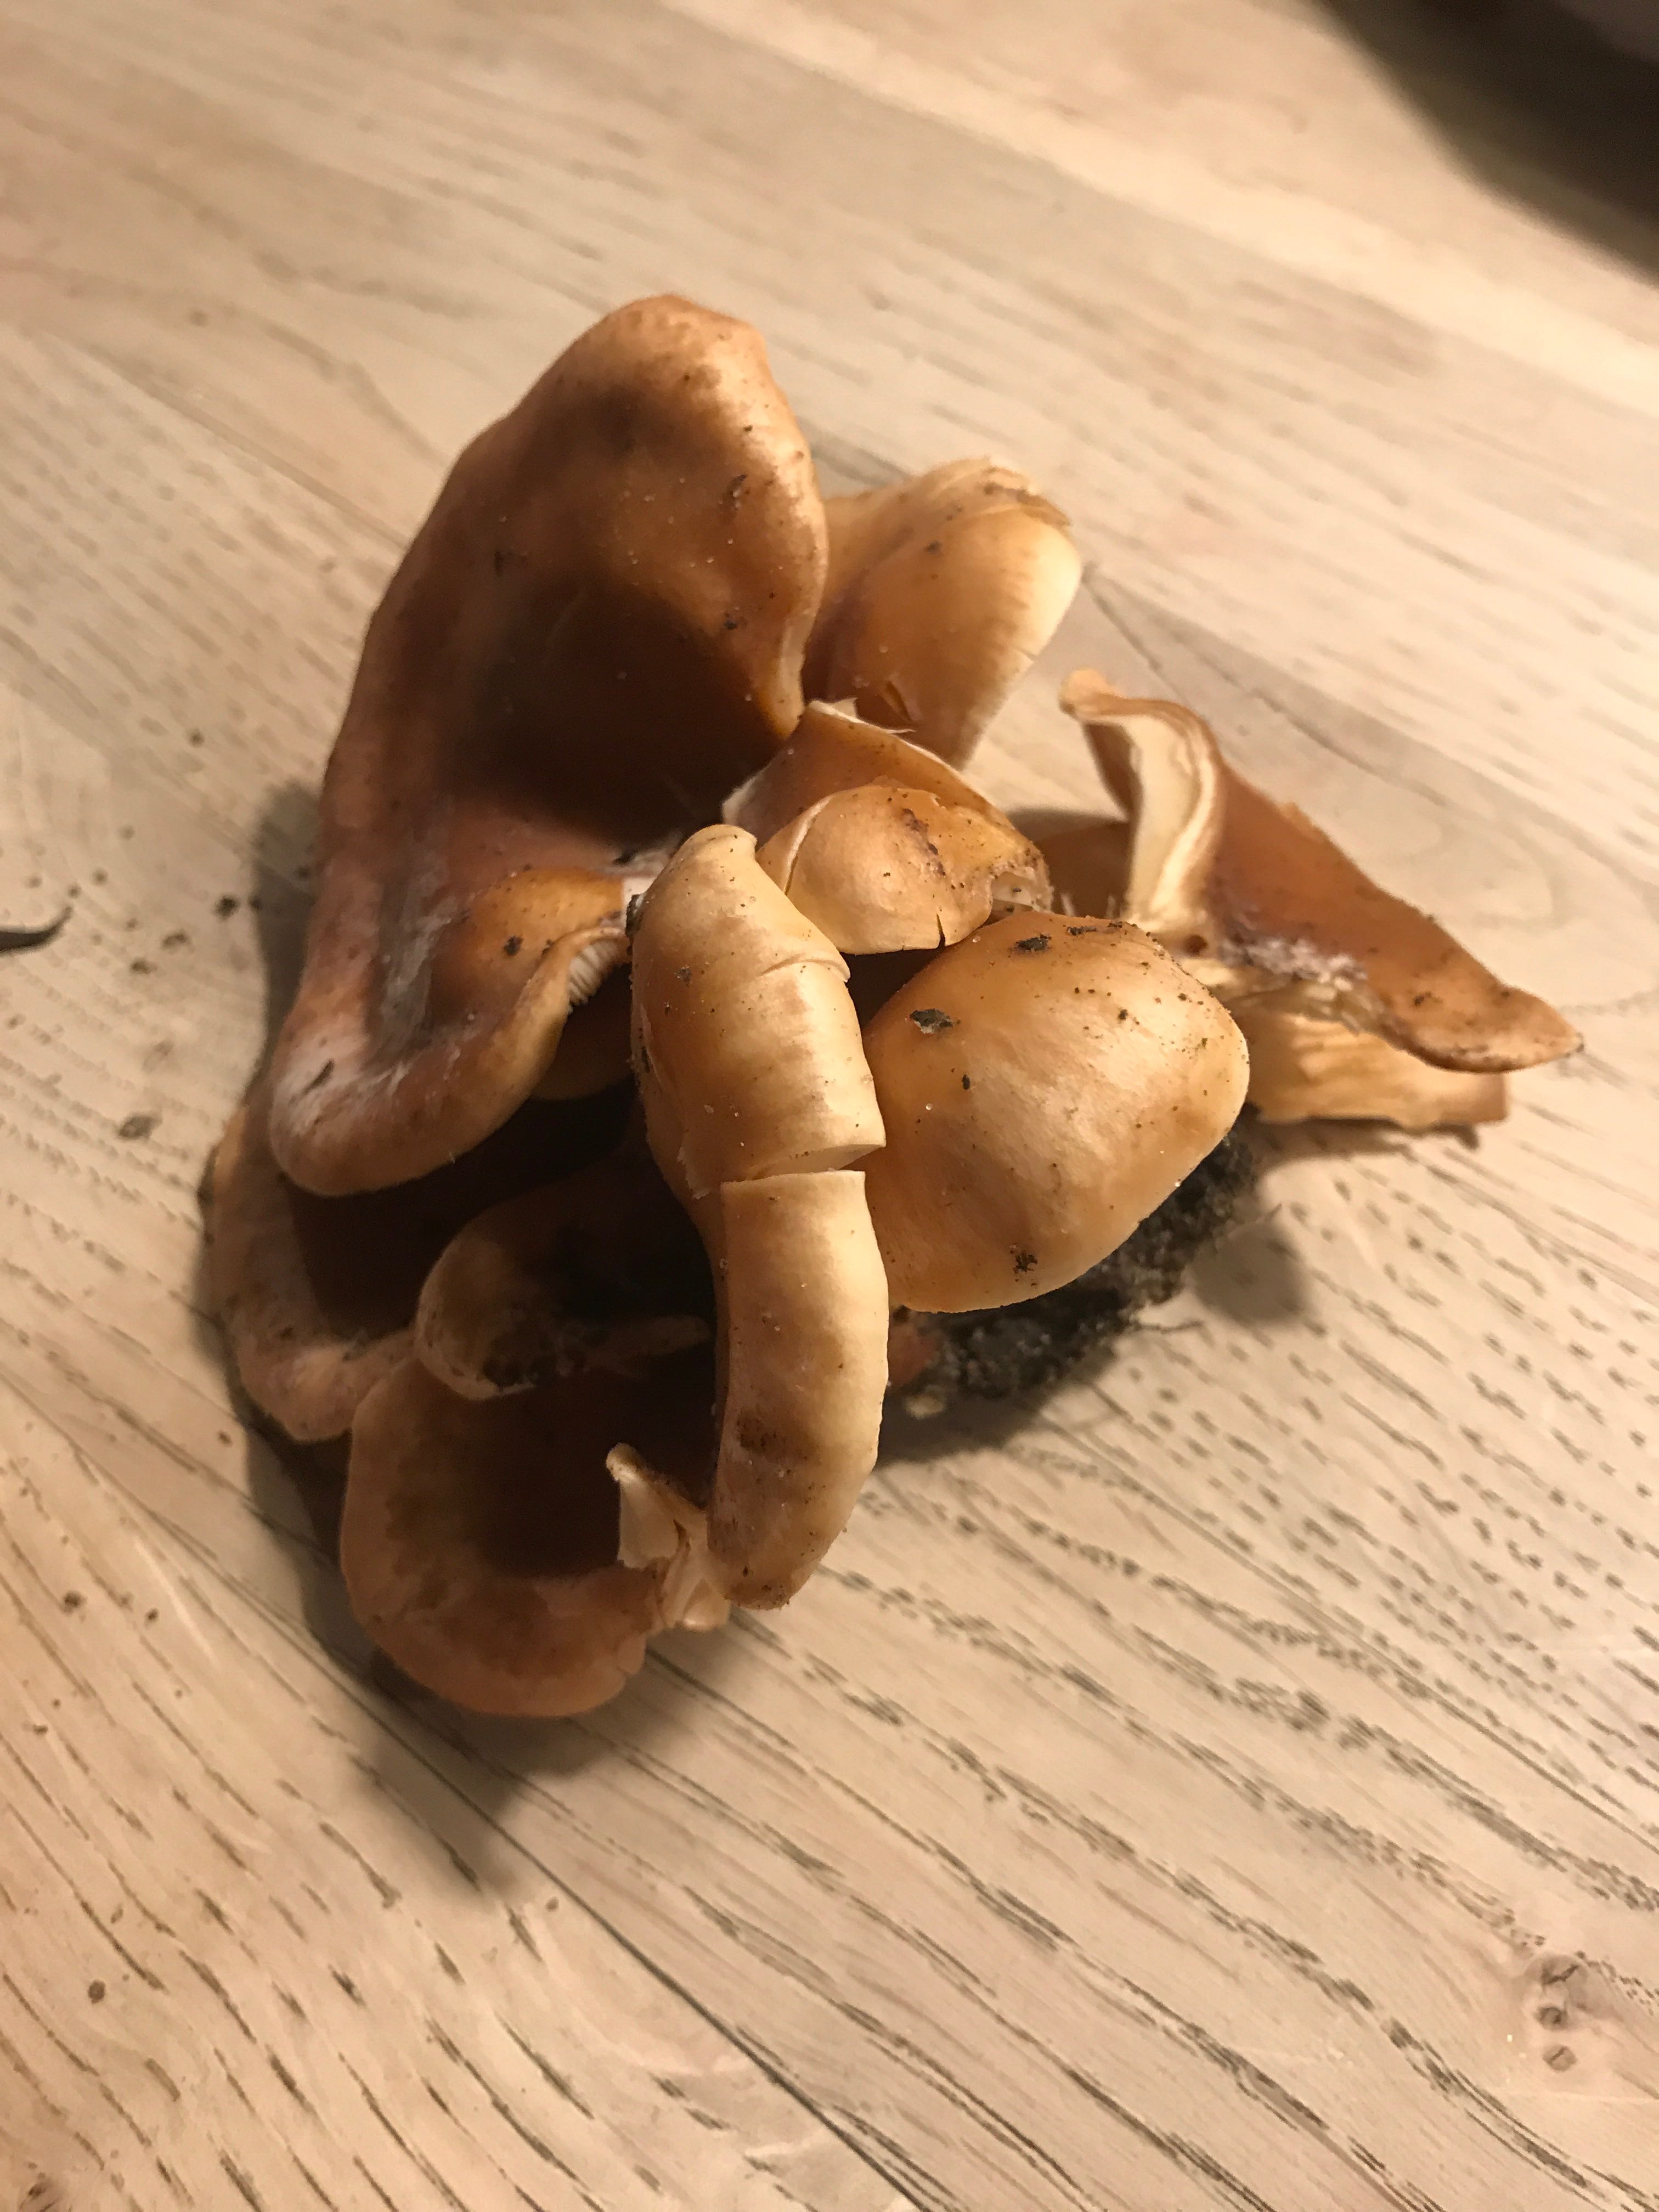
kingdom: Fungi
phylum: Basidiomycota
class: Agaricomycetes
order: Agaricales
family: Tricholomataceae
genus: Paralepista
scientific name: Paralepista flaccida
